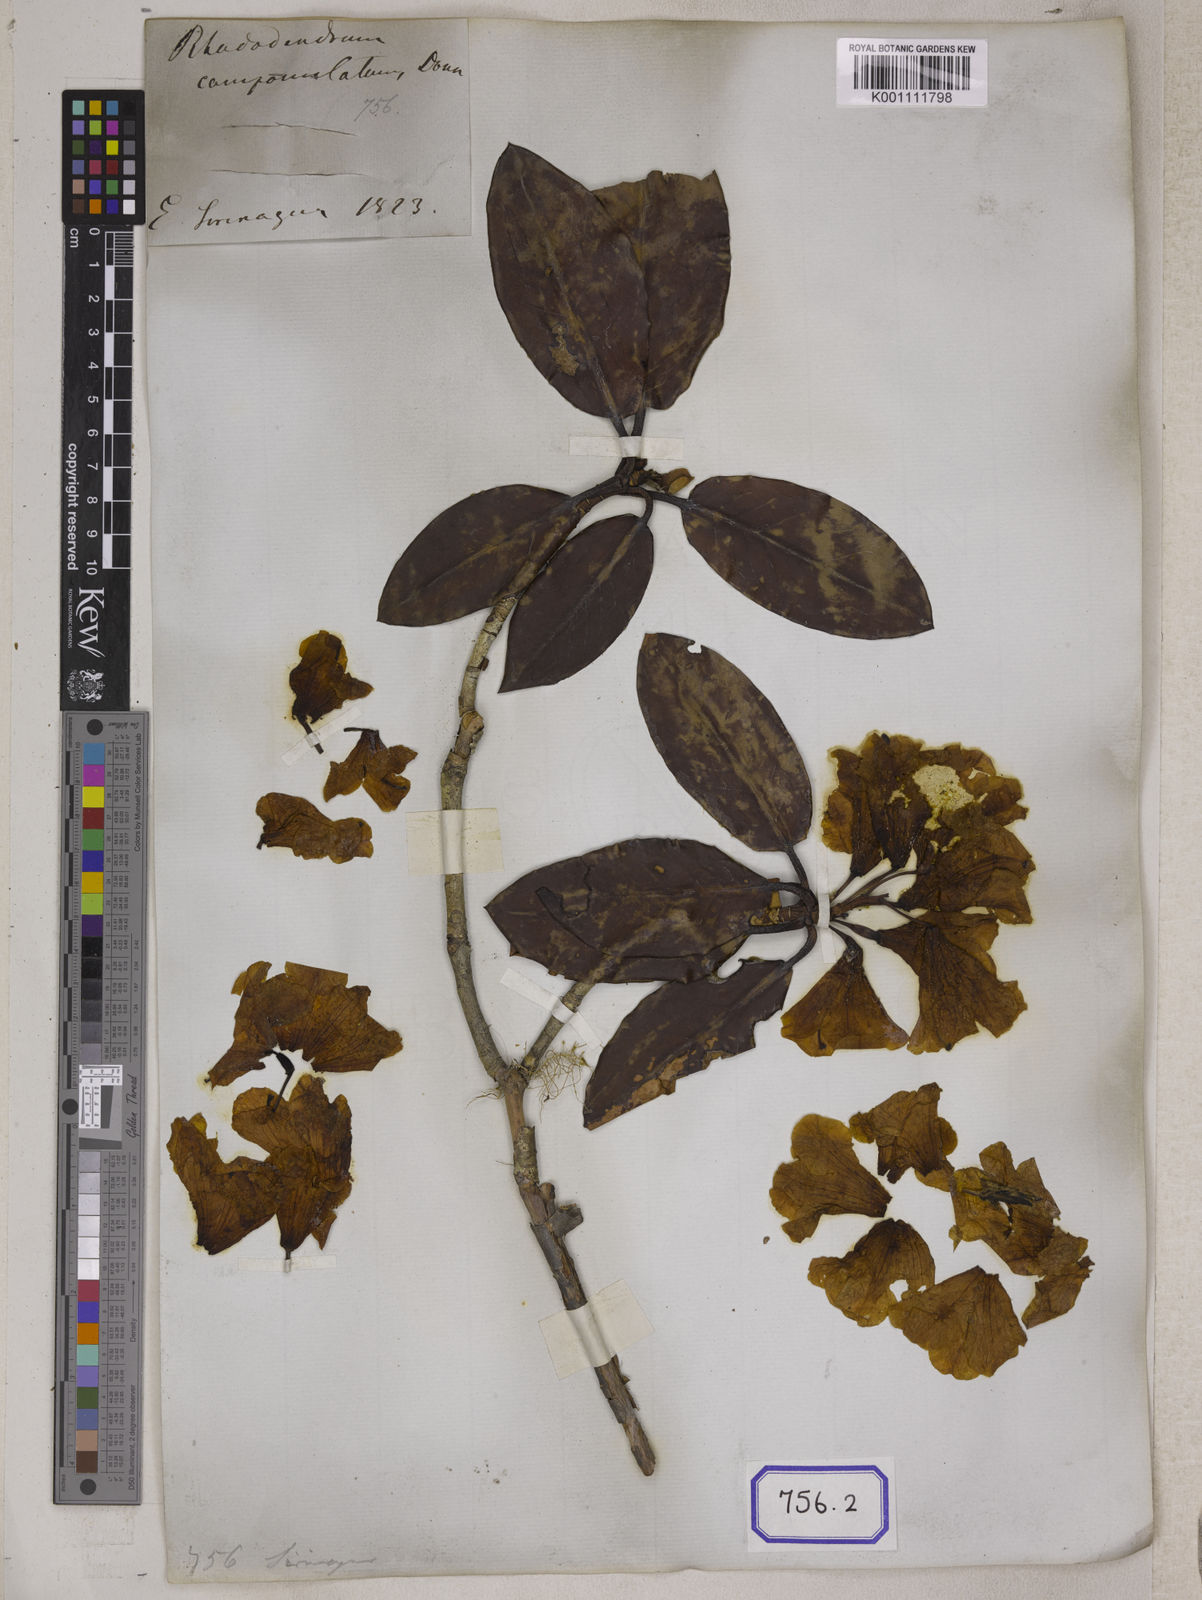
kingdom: Plantae
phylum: Tracheophyta
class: Magnoliopsida
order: Ericales
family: Ericaceae
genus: Rhododendron
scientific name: Rhododendron campanulatum
